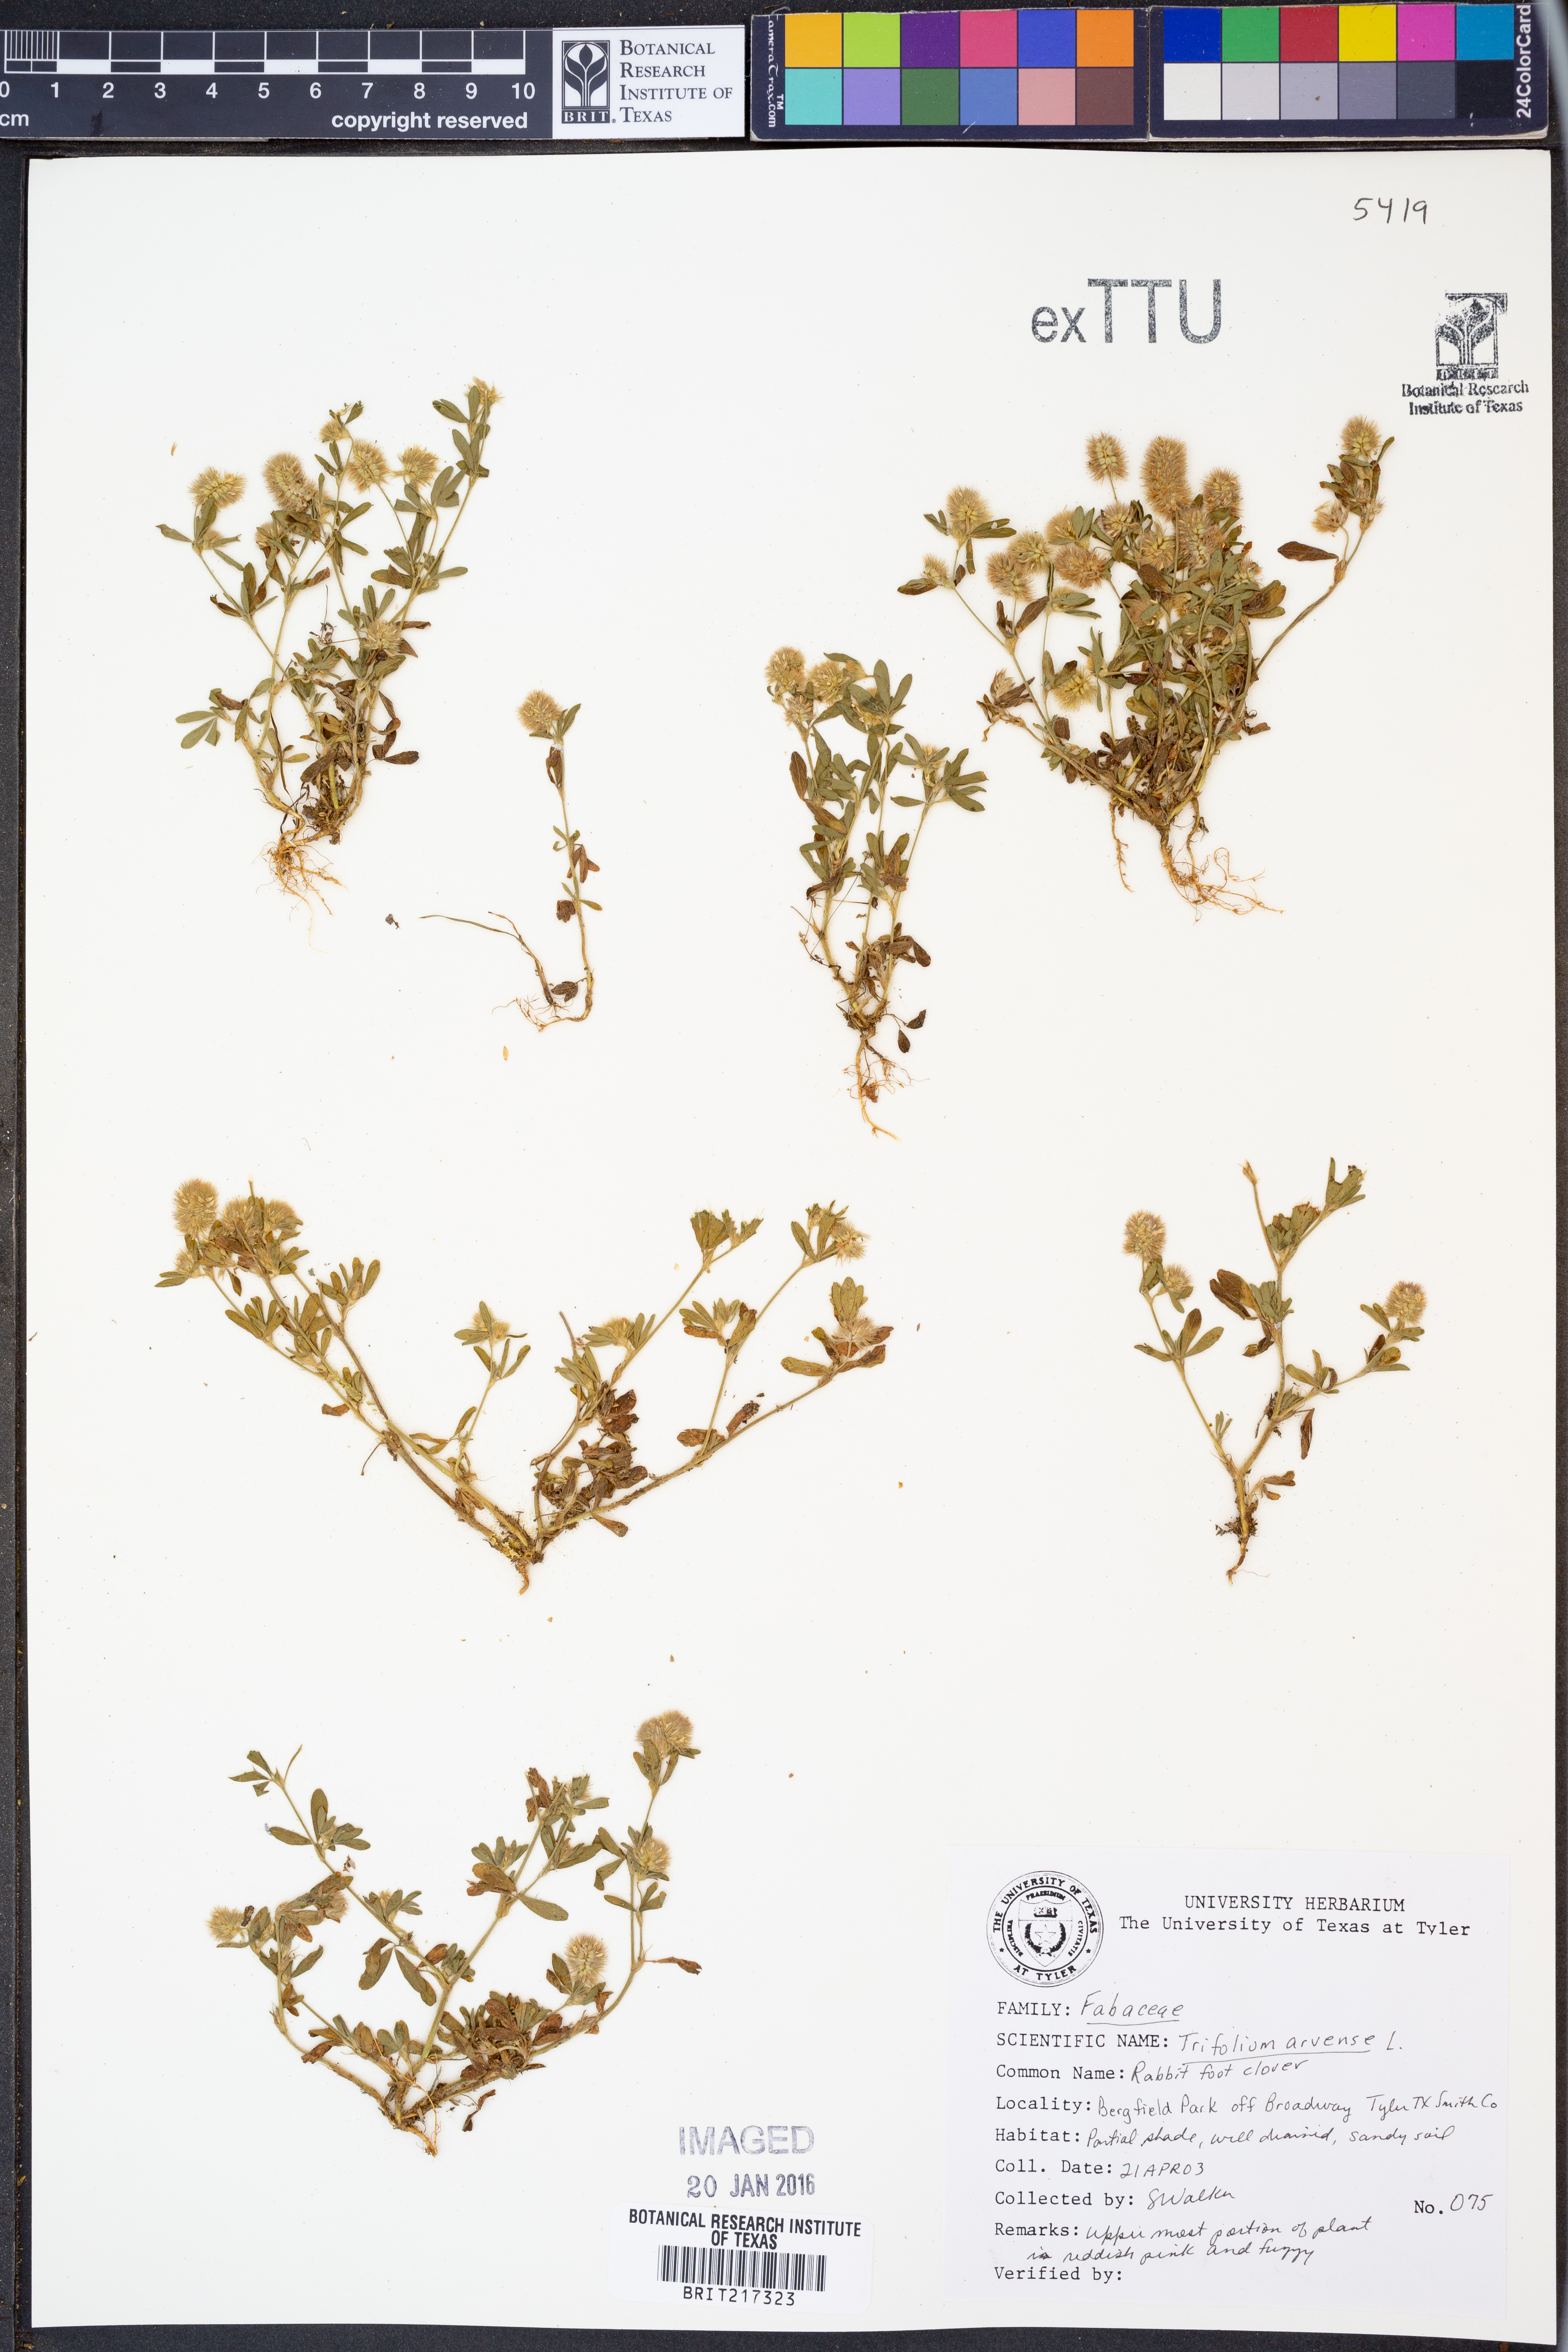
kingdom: Plantae
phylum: Tracheophyta
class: Magnoliopsida
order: Fabales
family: Fabaceae
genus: Trifolium
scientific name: Trifolium arvense
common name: Hare's-foot clover
